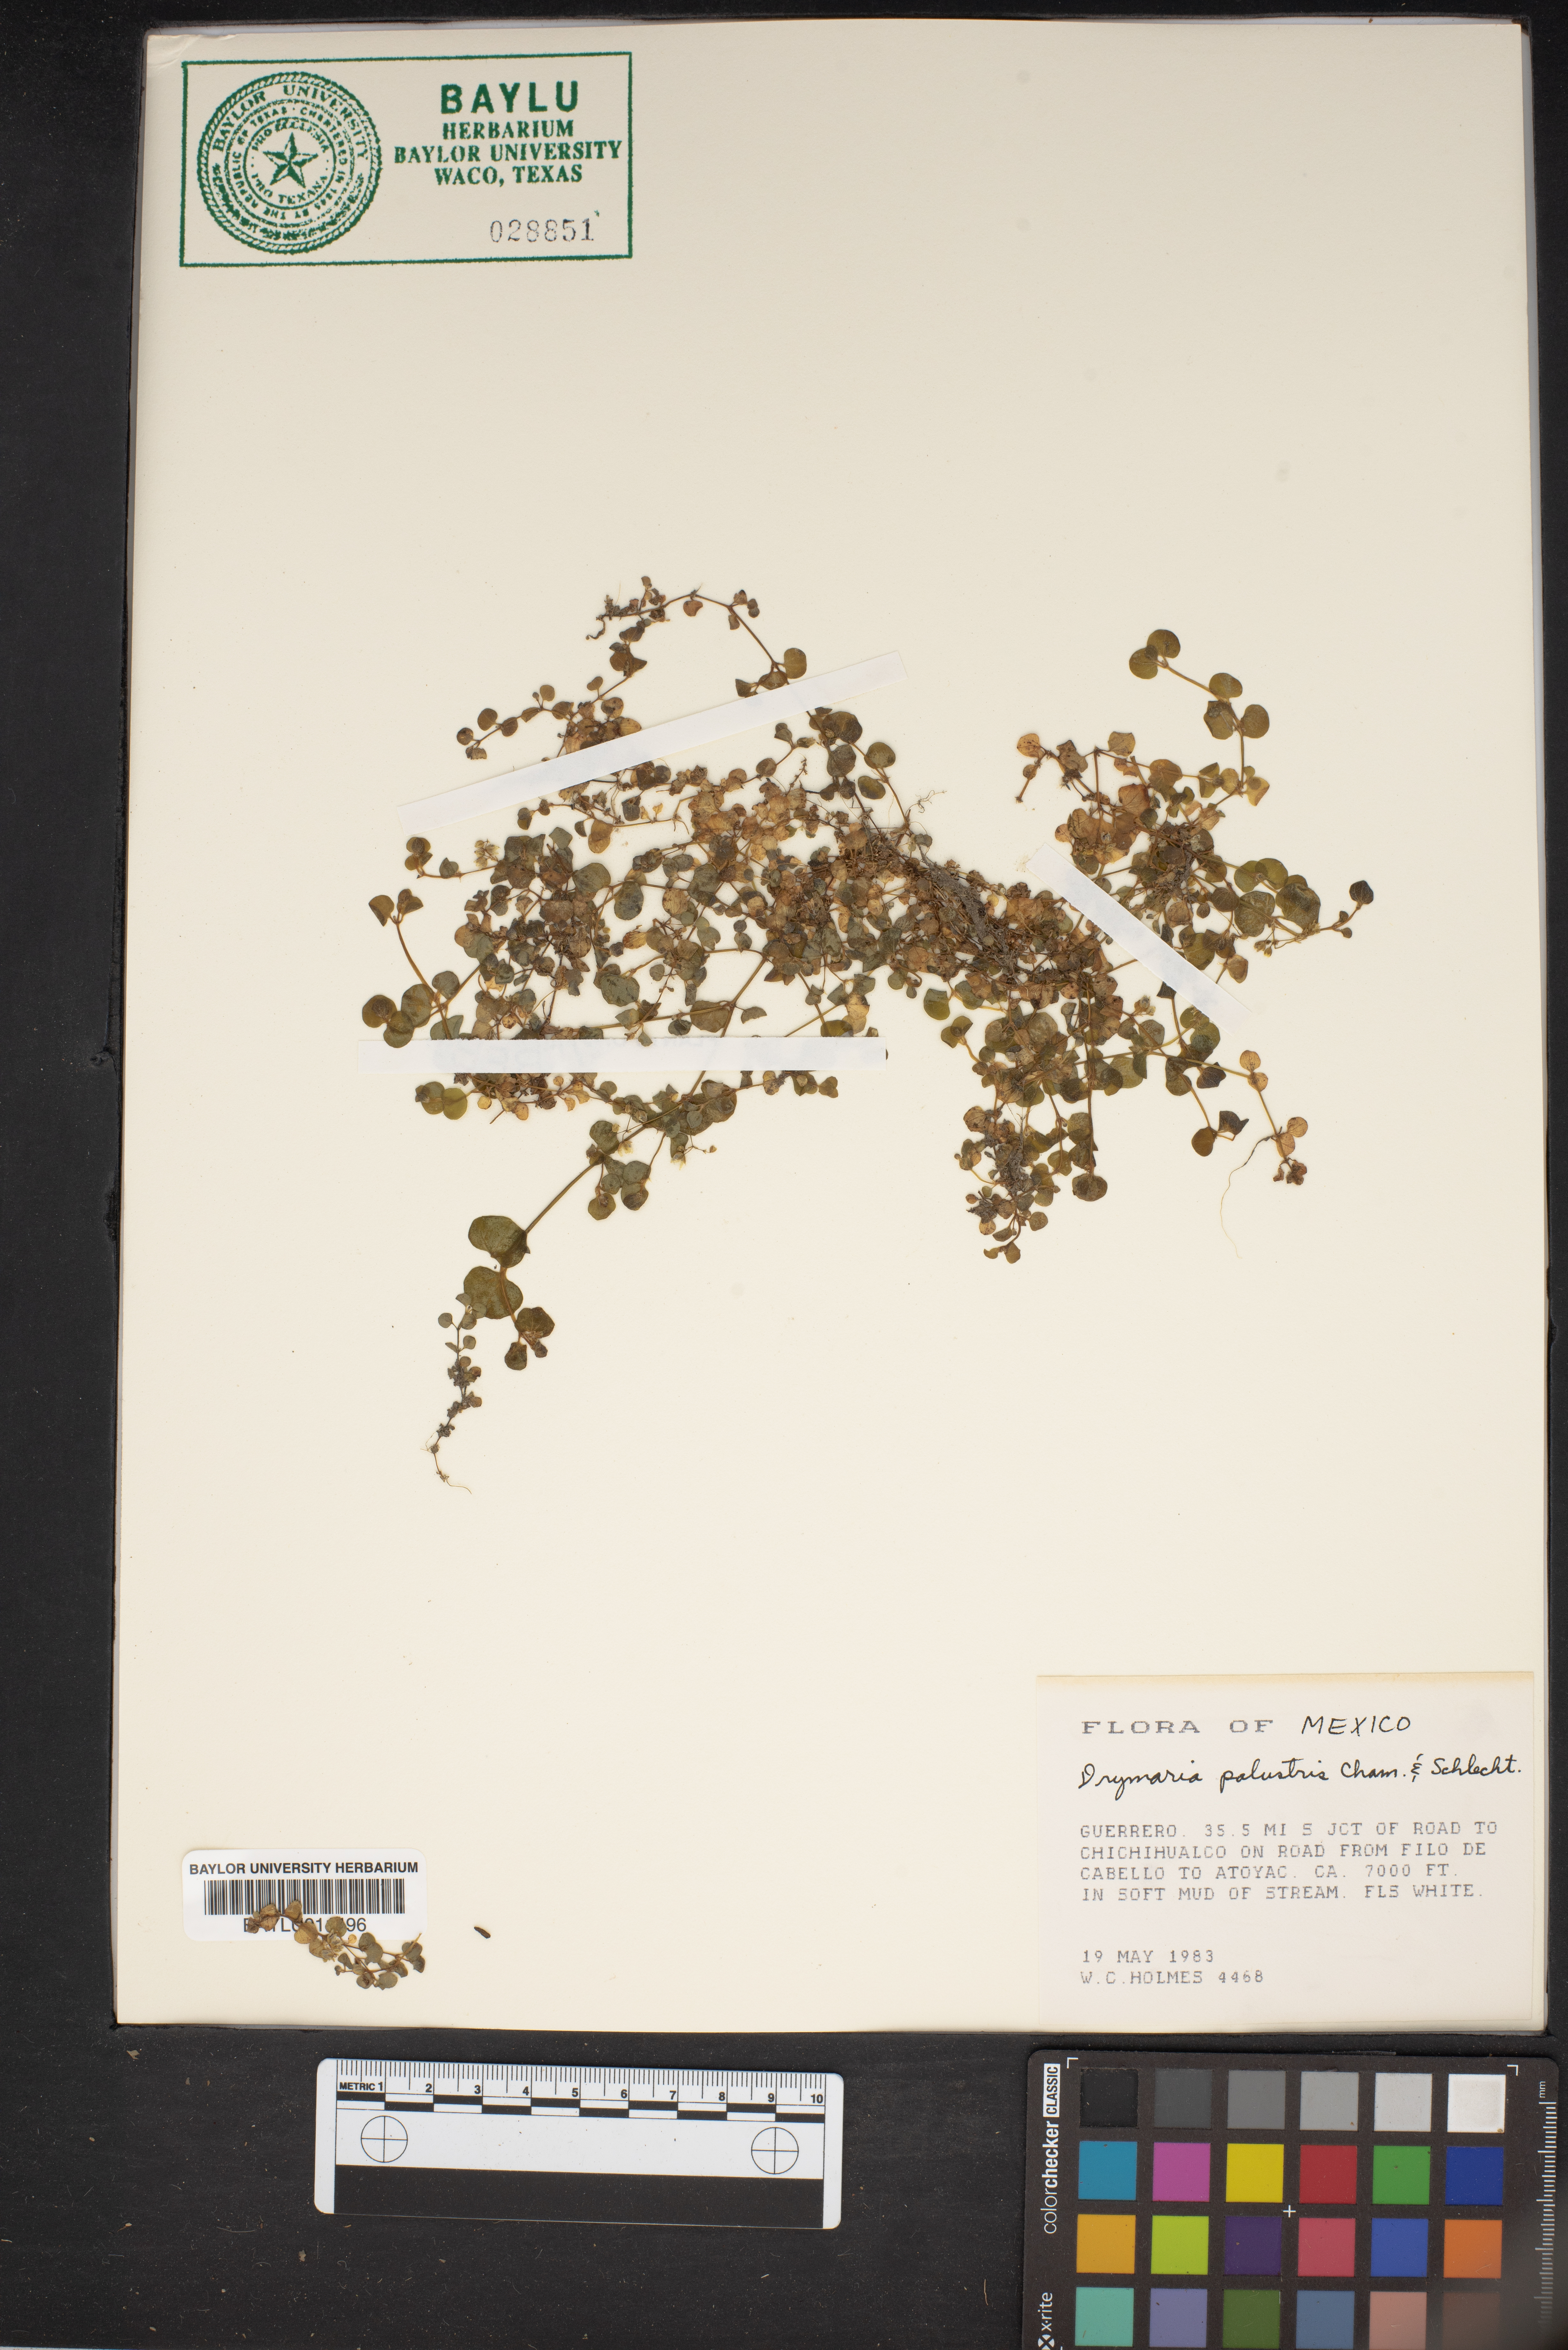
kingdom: Plantae
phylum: Tracheophyta
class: Magnoliopsida
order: Caryophyllales
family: Caryophyllaceae
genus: Drymaria
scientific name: Drymaria villosa
